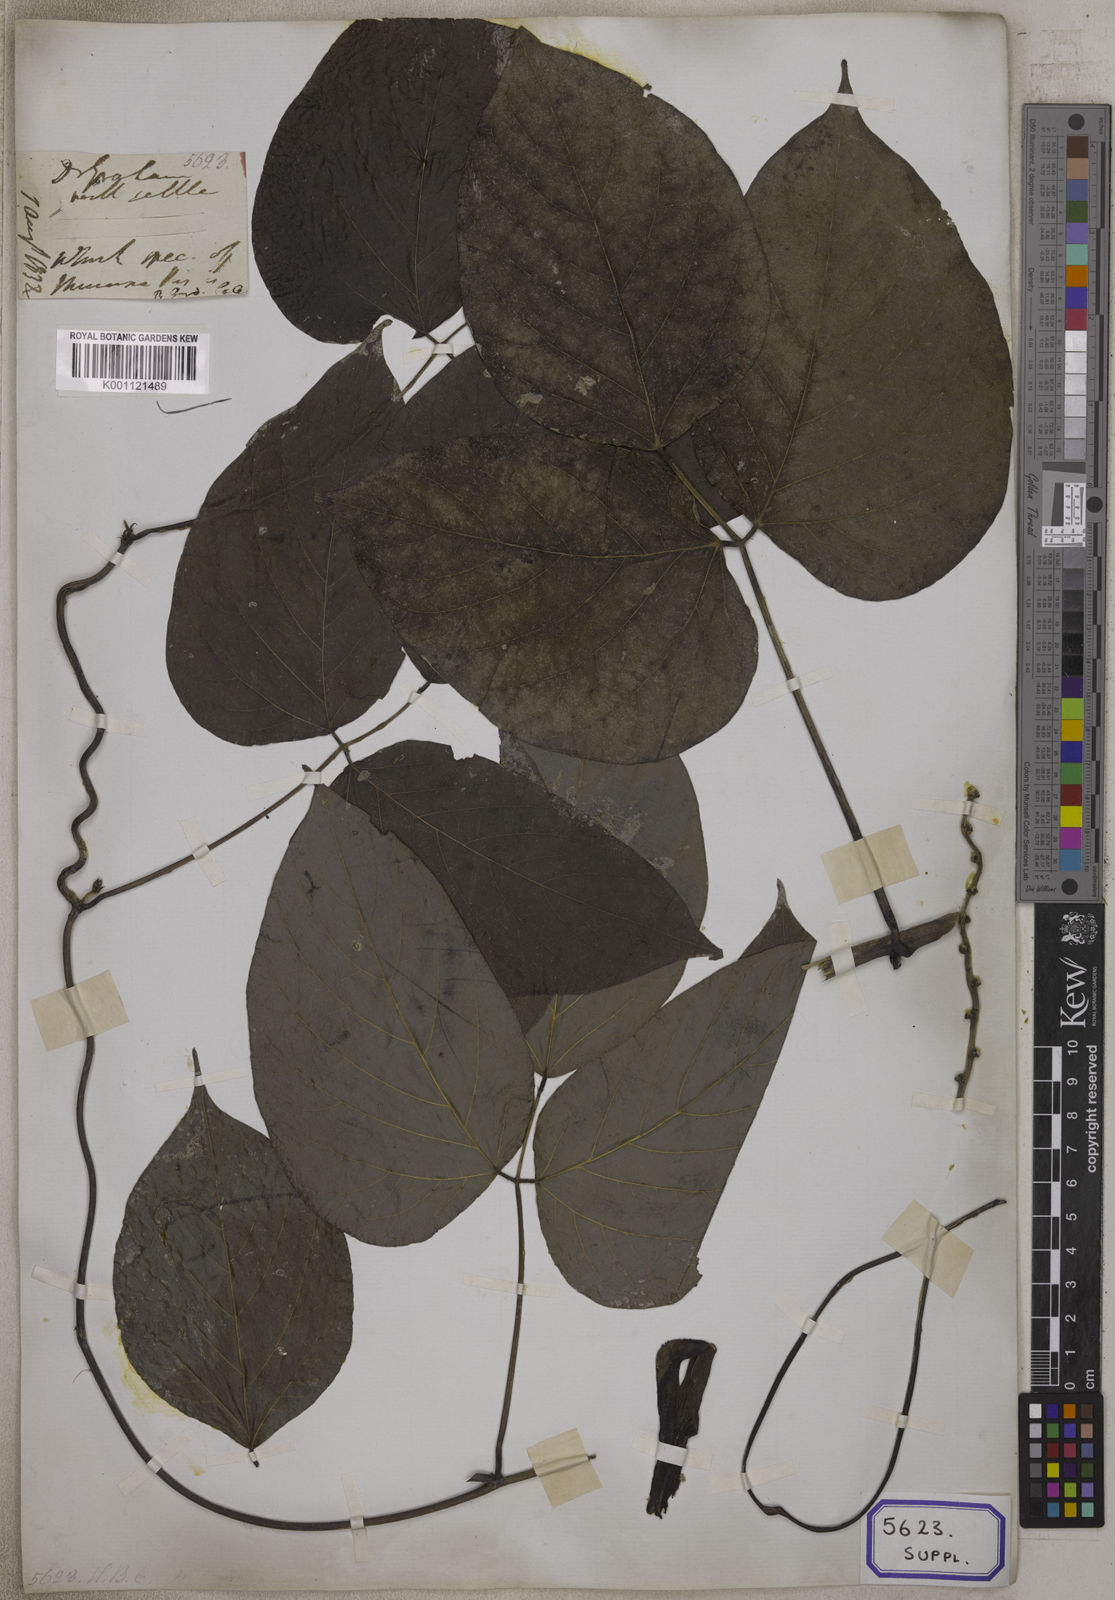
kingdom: Plantae
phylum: Tracheophyta
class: Magnoliopsida
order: Fabales
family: Fabaceae
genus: Mucuna
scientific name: Mucuna
